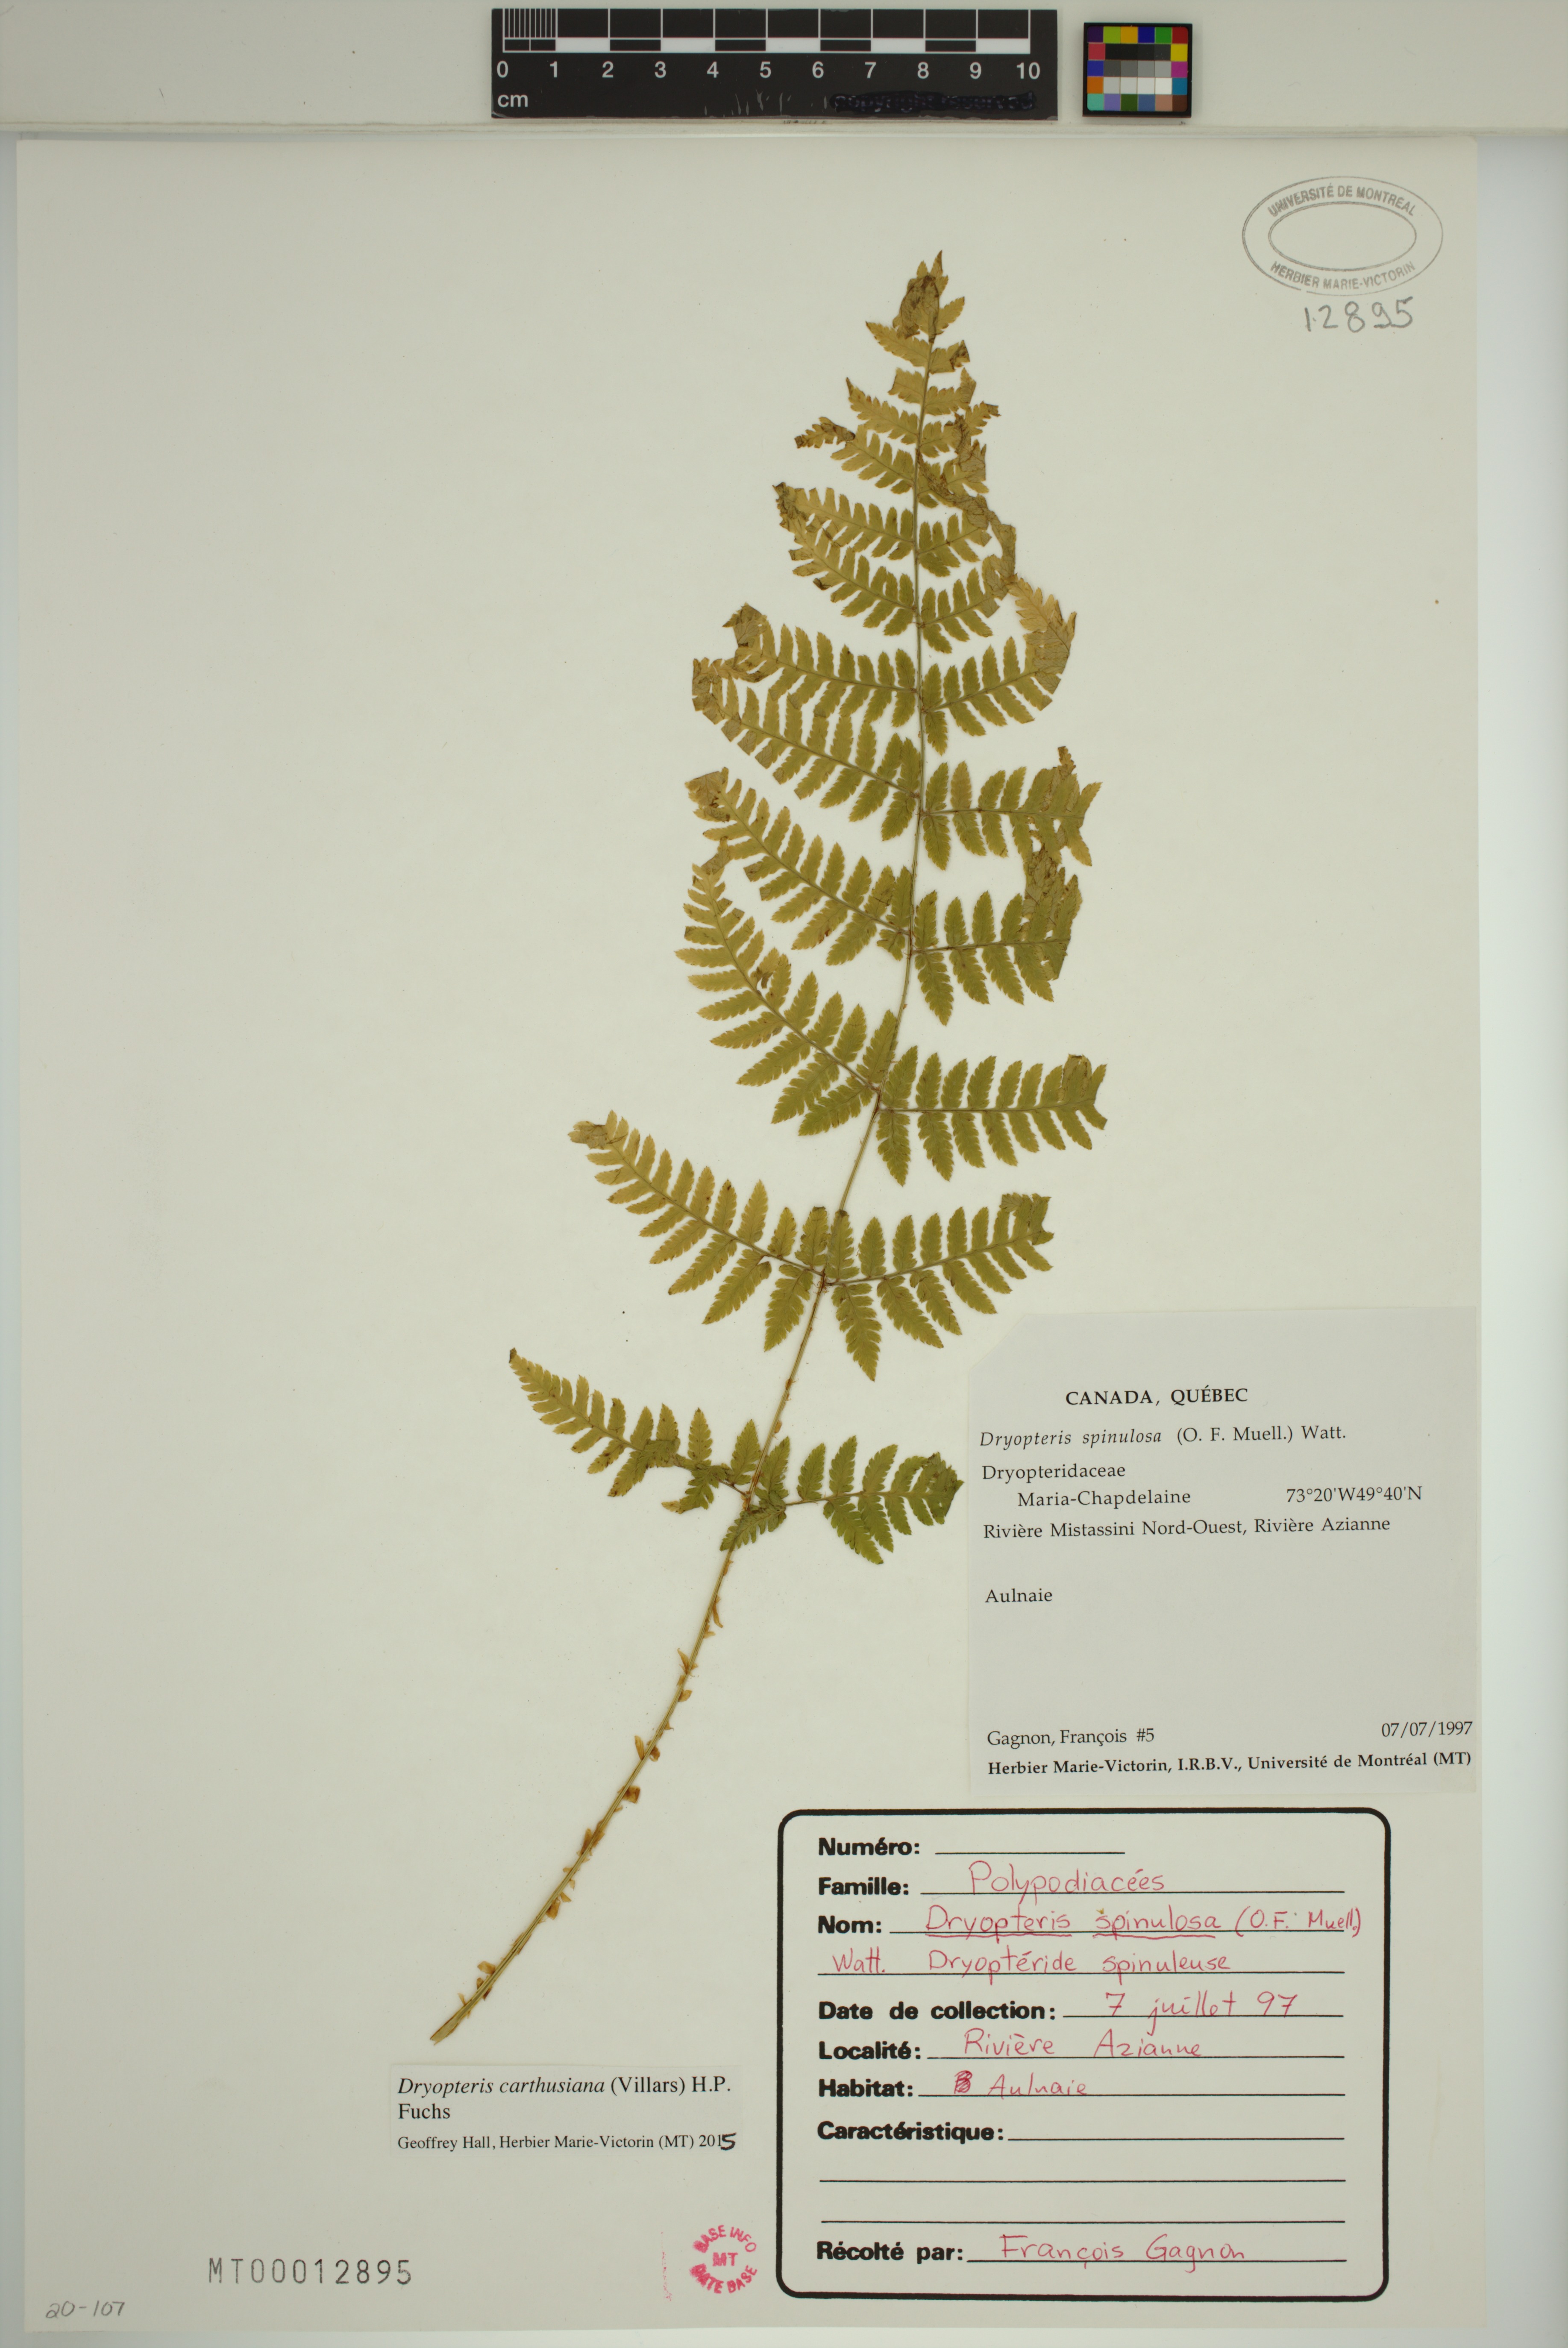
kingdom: Plantae
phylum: Tracheophyta
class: Polypodiopsida
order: Polypodiales
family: Dryopteridaceae
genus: Dryopteris
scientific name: Dryopteris carthusiana
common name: Narrow buckler-fern
